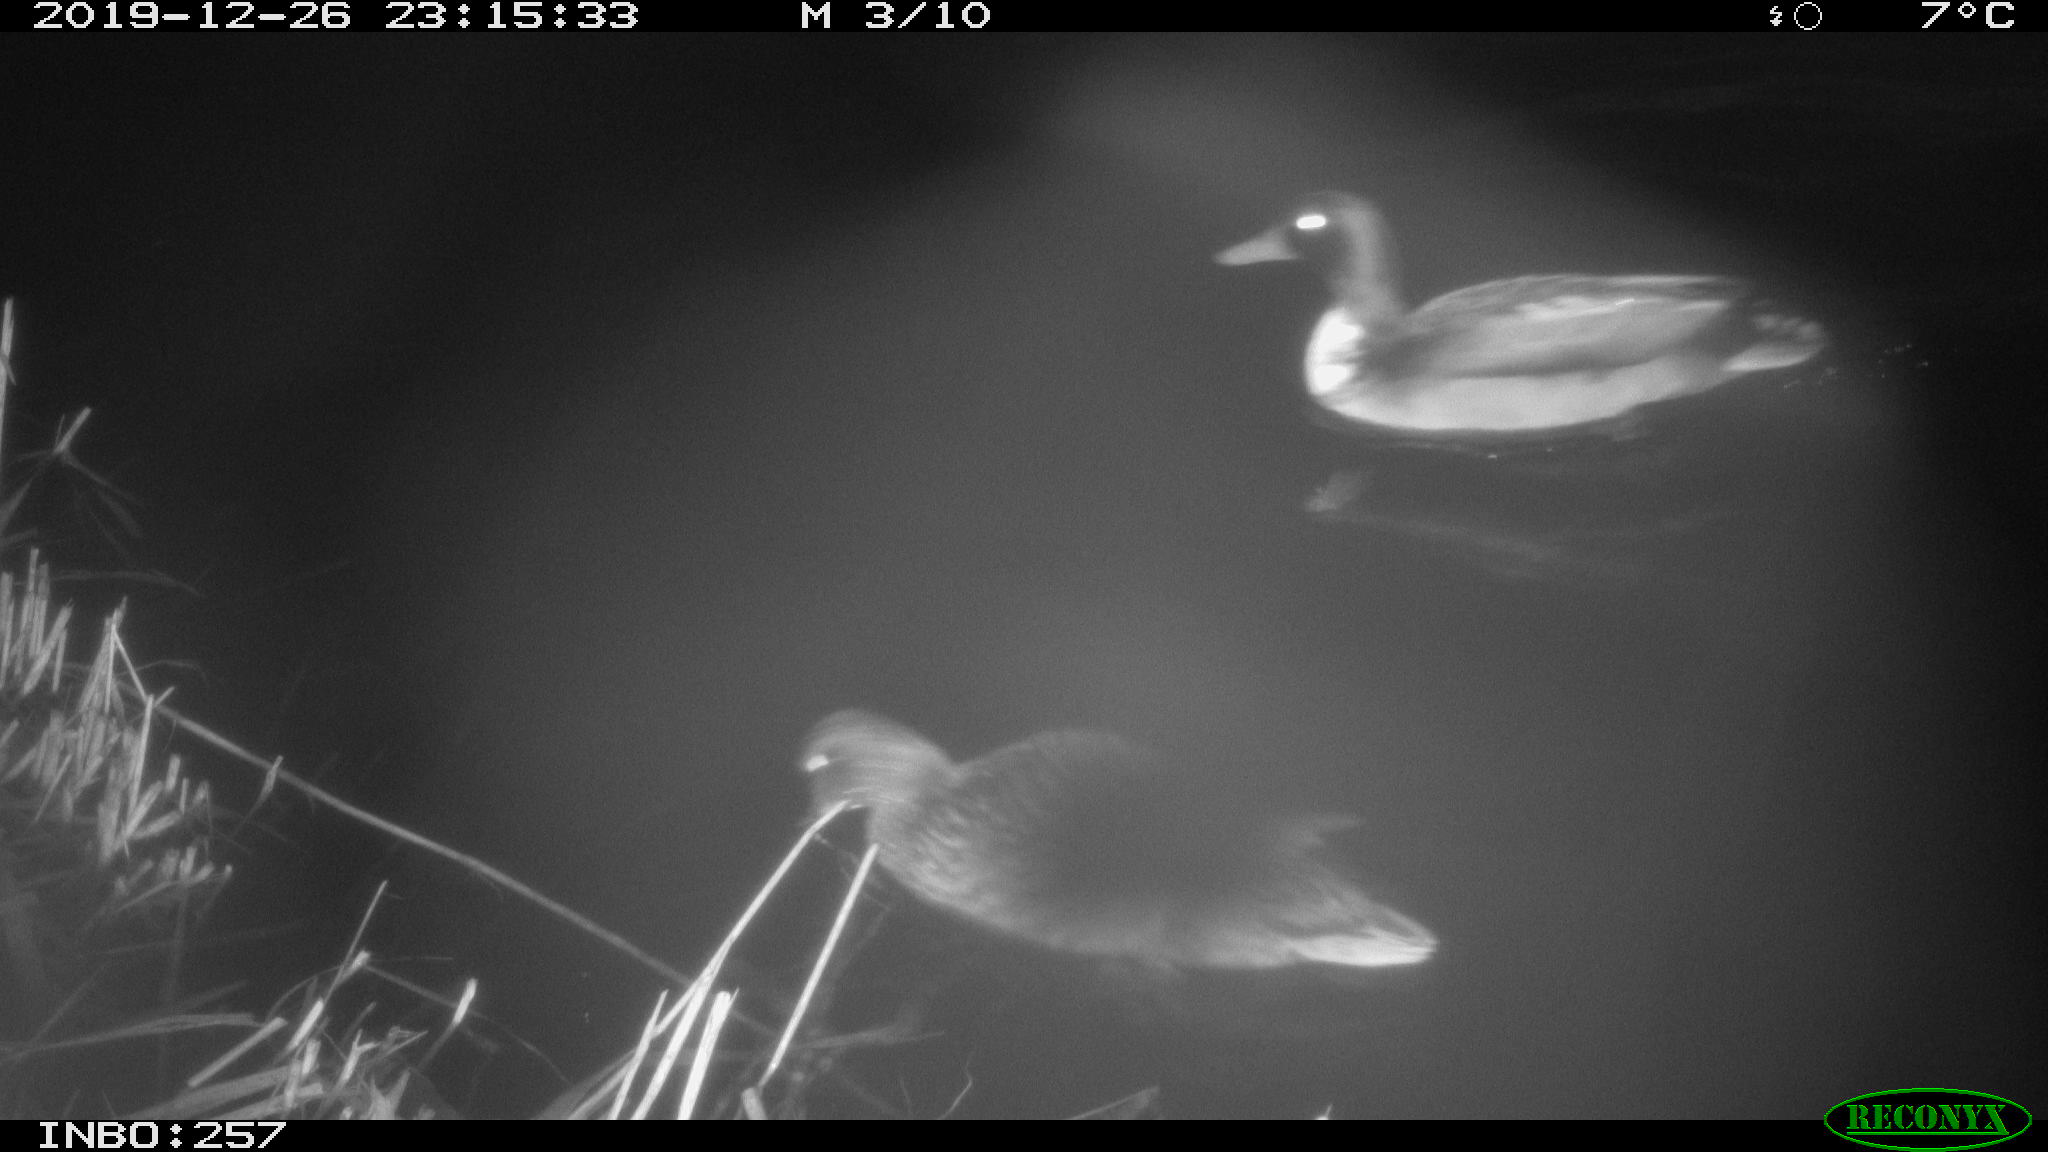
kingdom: Animalia
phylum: Chordata
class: Aves
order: Anseriformes
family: Anatidae
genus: Anas
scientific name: Anas platyrhynchos
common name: Mallard
